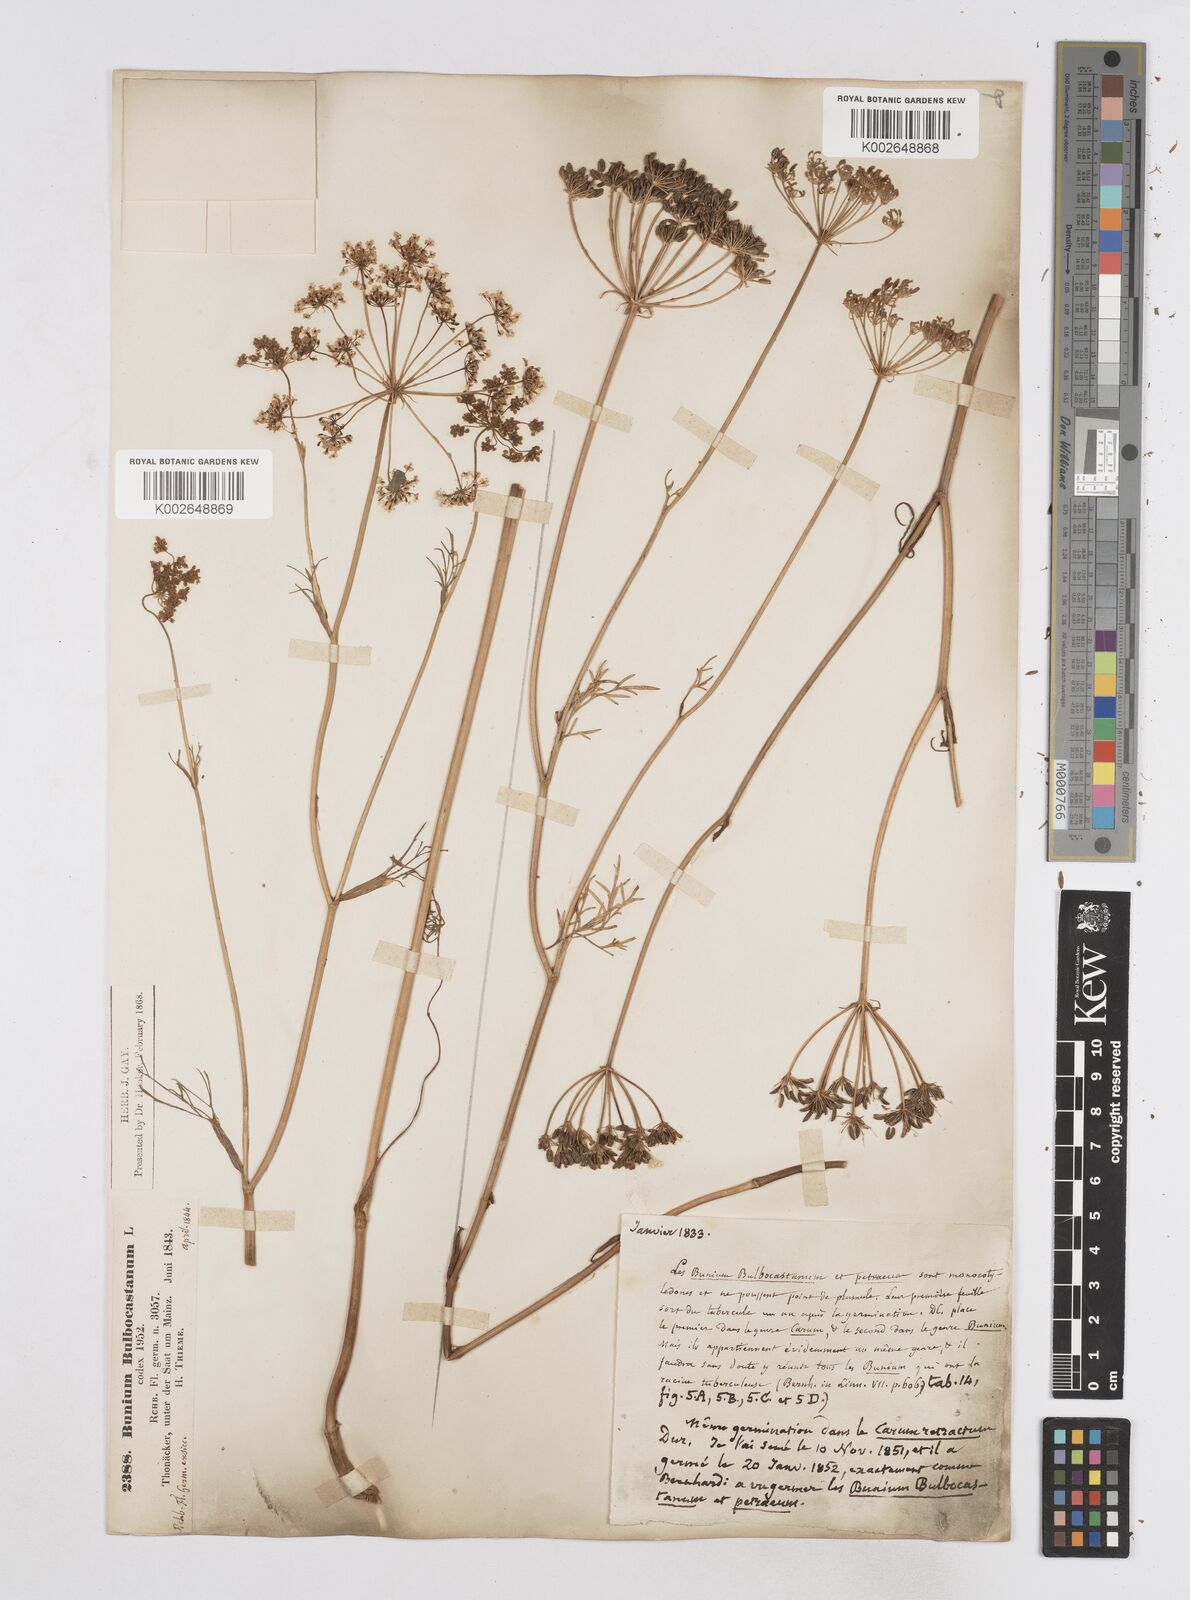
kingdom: Plantae
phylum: Tracheophyta
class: Magnoliopsida
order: Apiales
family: Apiaceae
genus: Bunium
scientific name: Bunium bulbocastanum
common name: Great pignut
